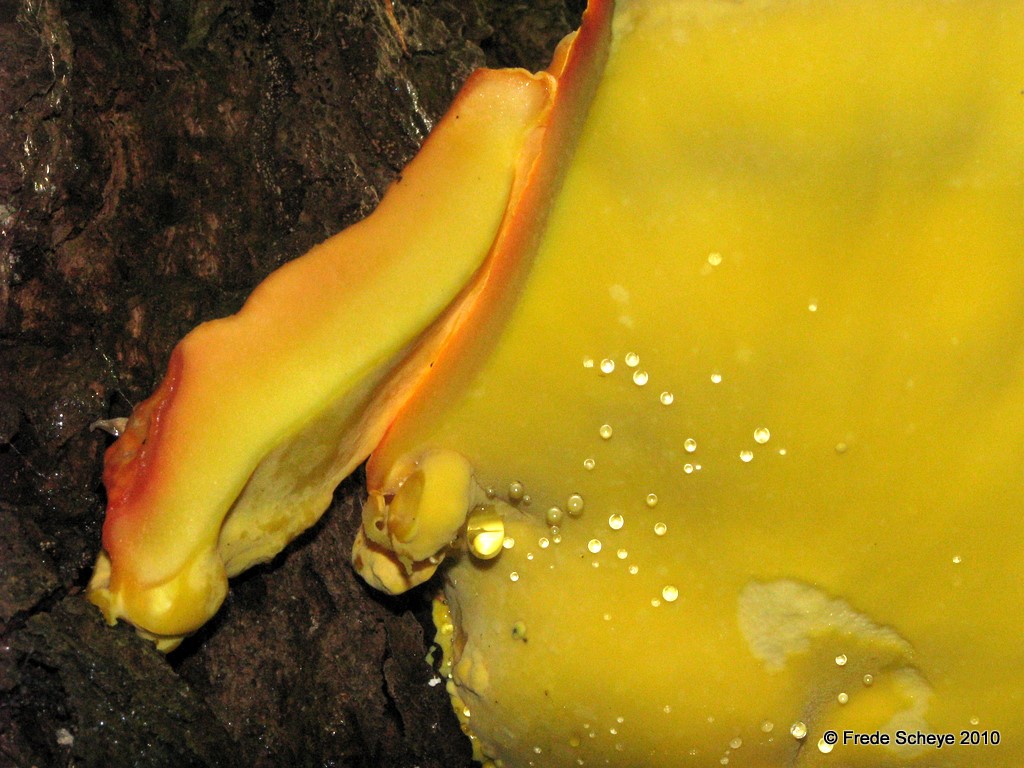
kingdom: Fungi
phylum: Basidiomycota
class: Agaricomycetes
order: Polyporales
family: Laetiporaceae
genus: Laetiporus
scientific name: Laetiporus sulphureus
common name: svovlporesvamp
